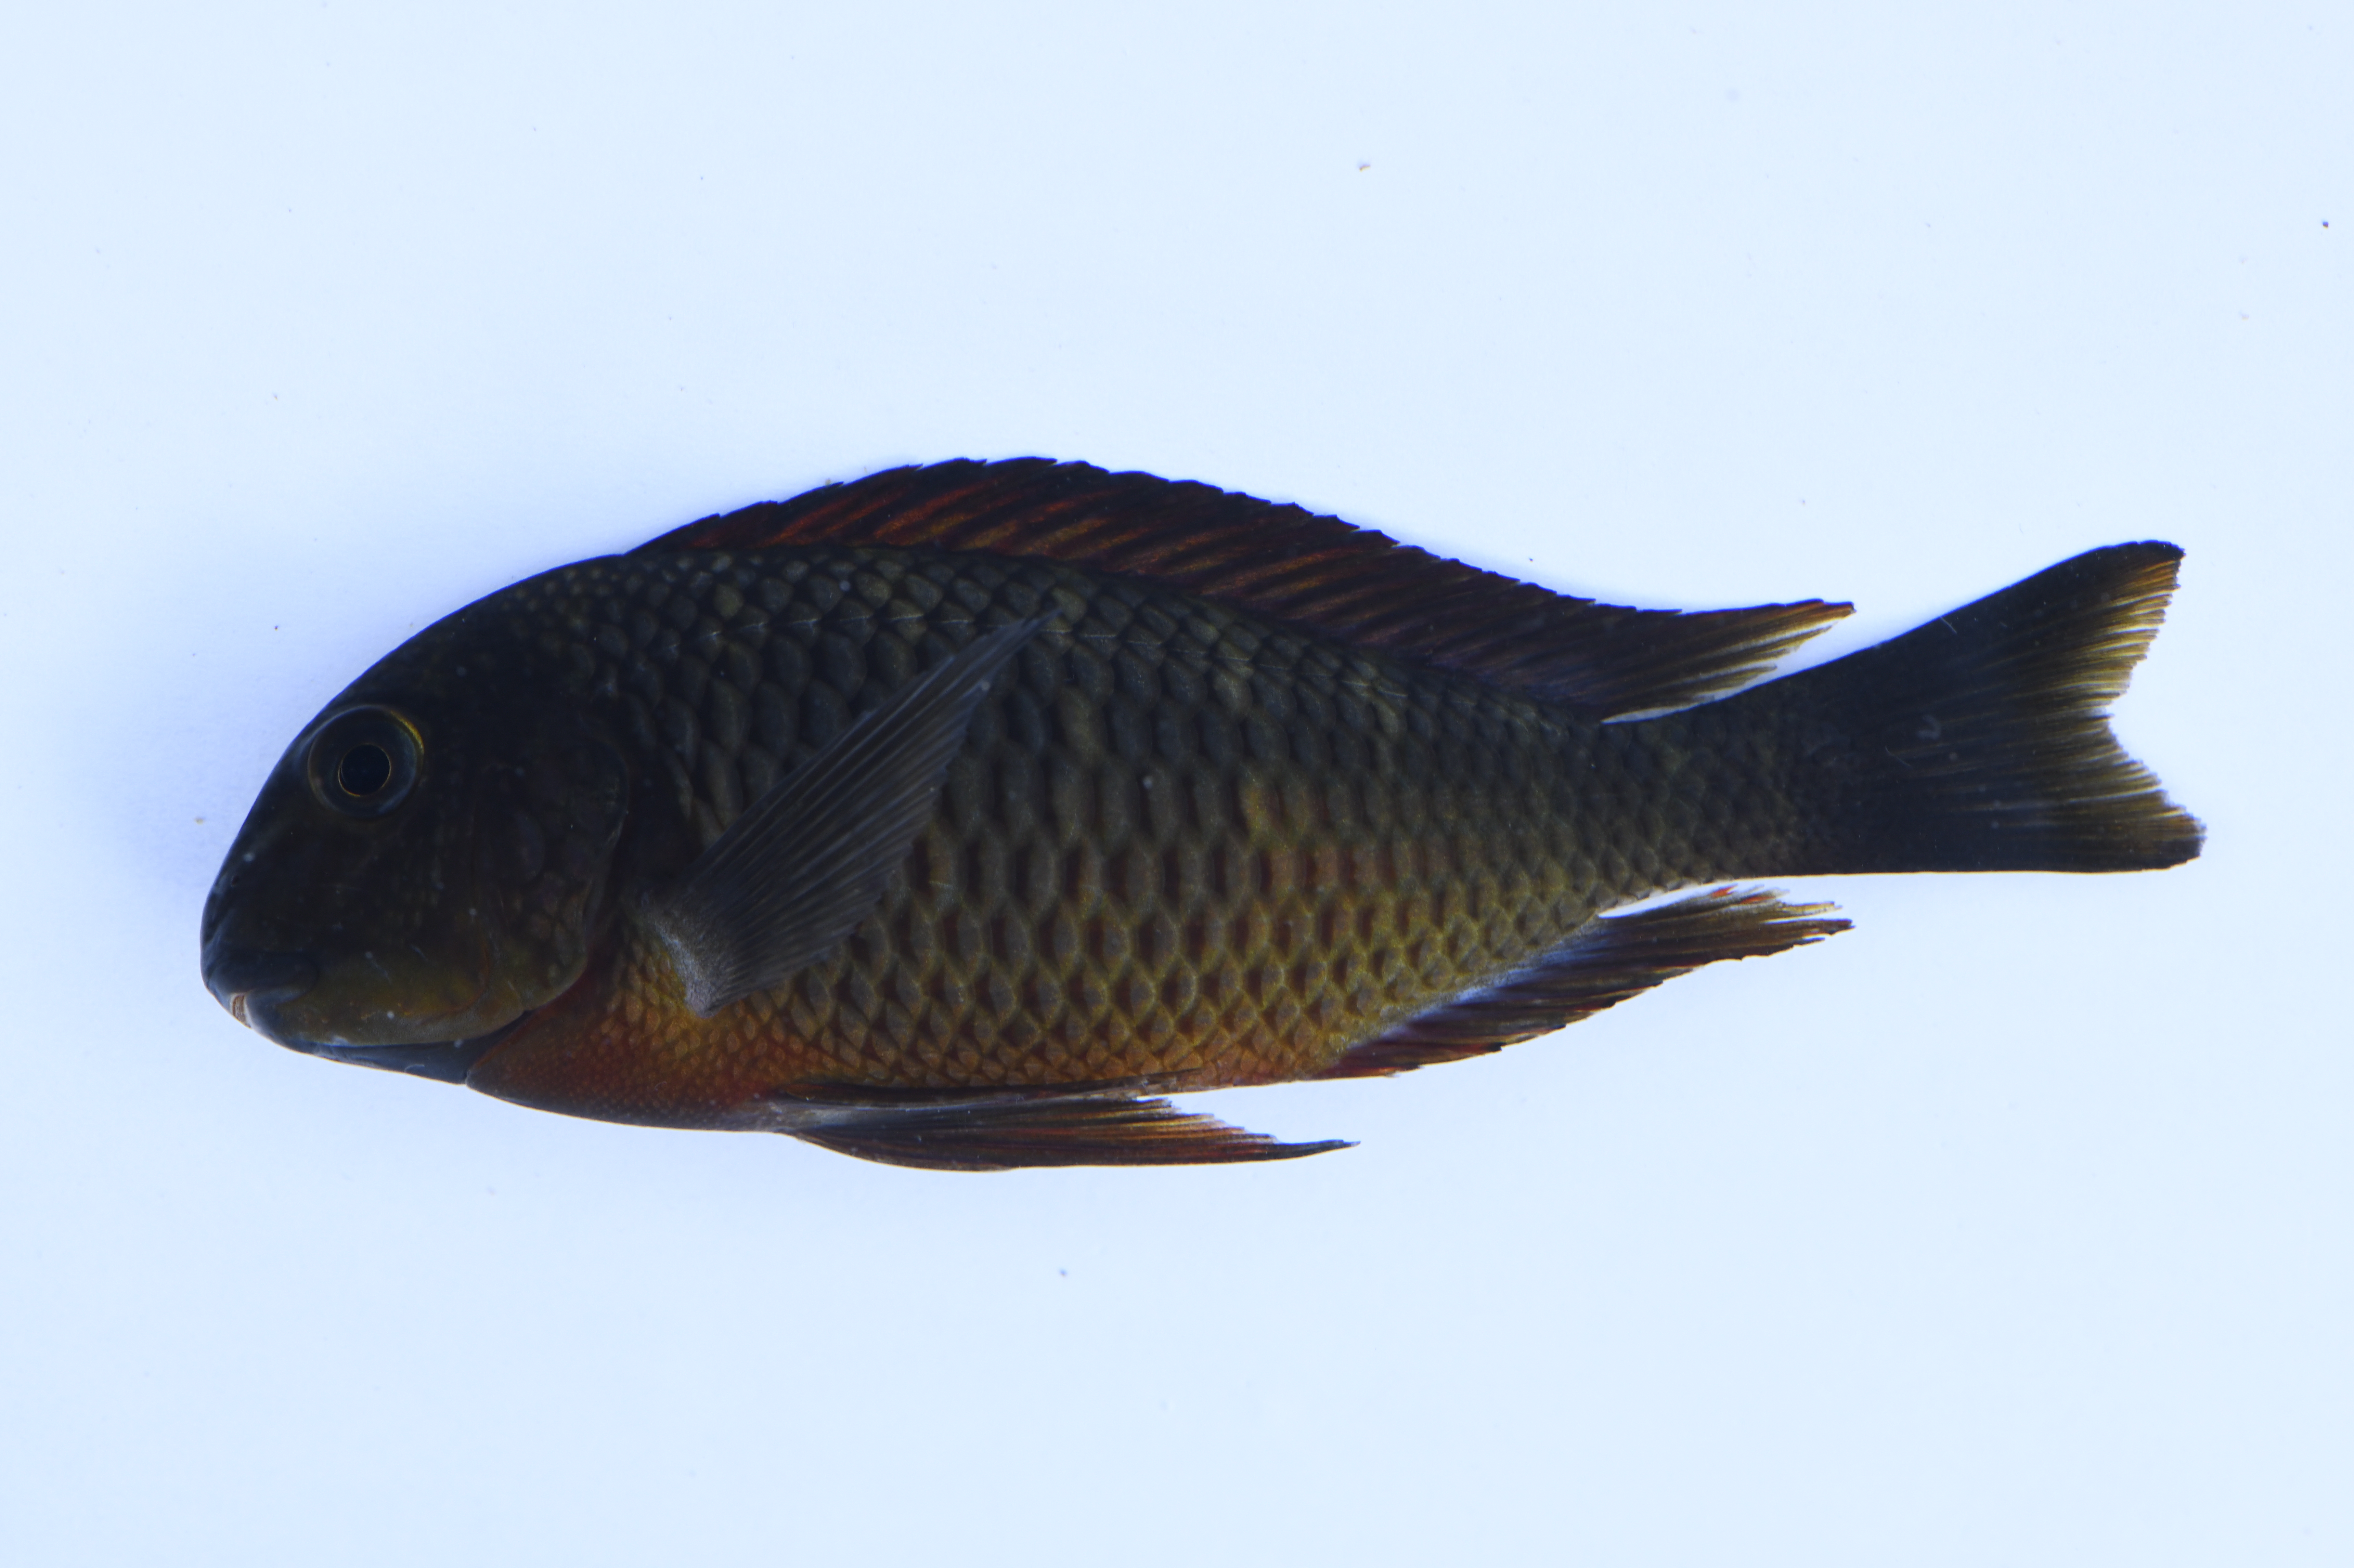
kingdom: Animalia
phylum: Chordata
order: Perciformes
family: Cichlidae
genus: Tropheus
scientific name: Tropheus moorii
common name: Blunthead cichlid
